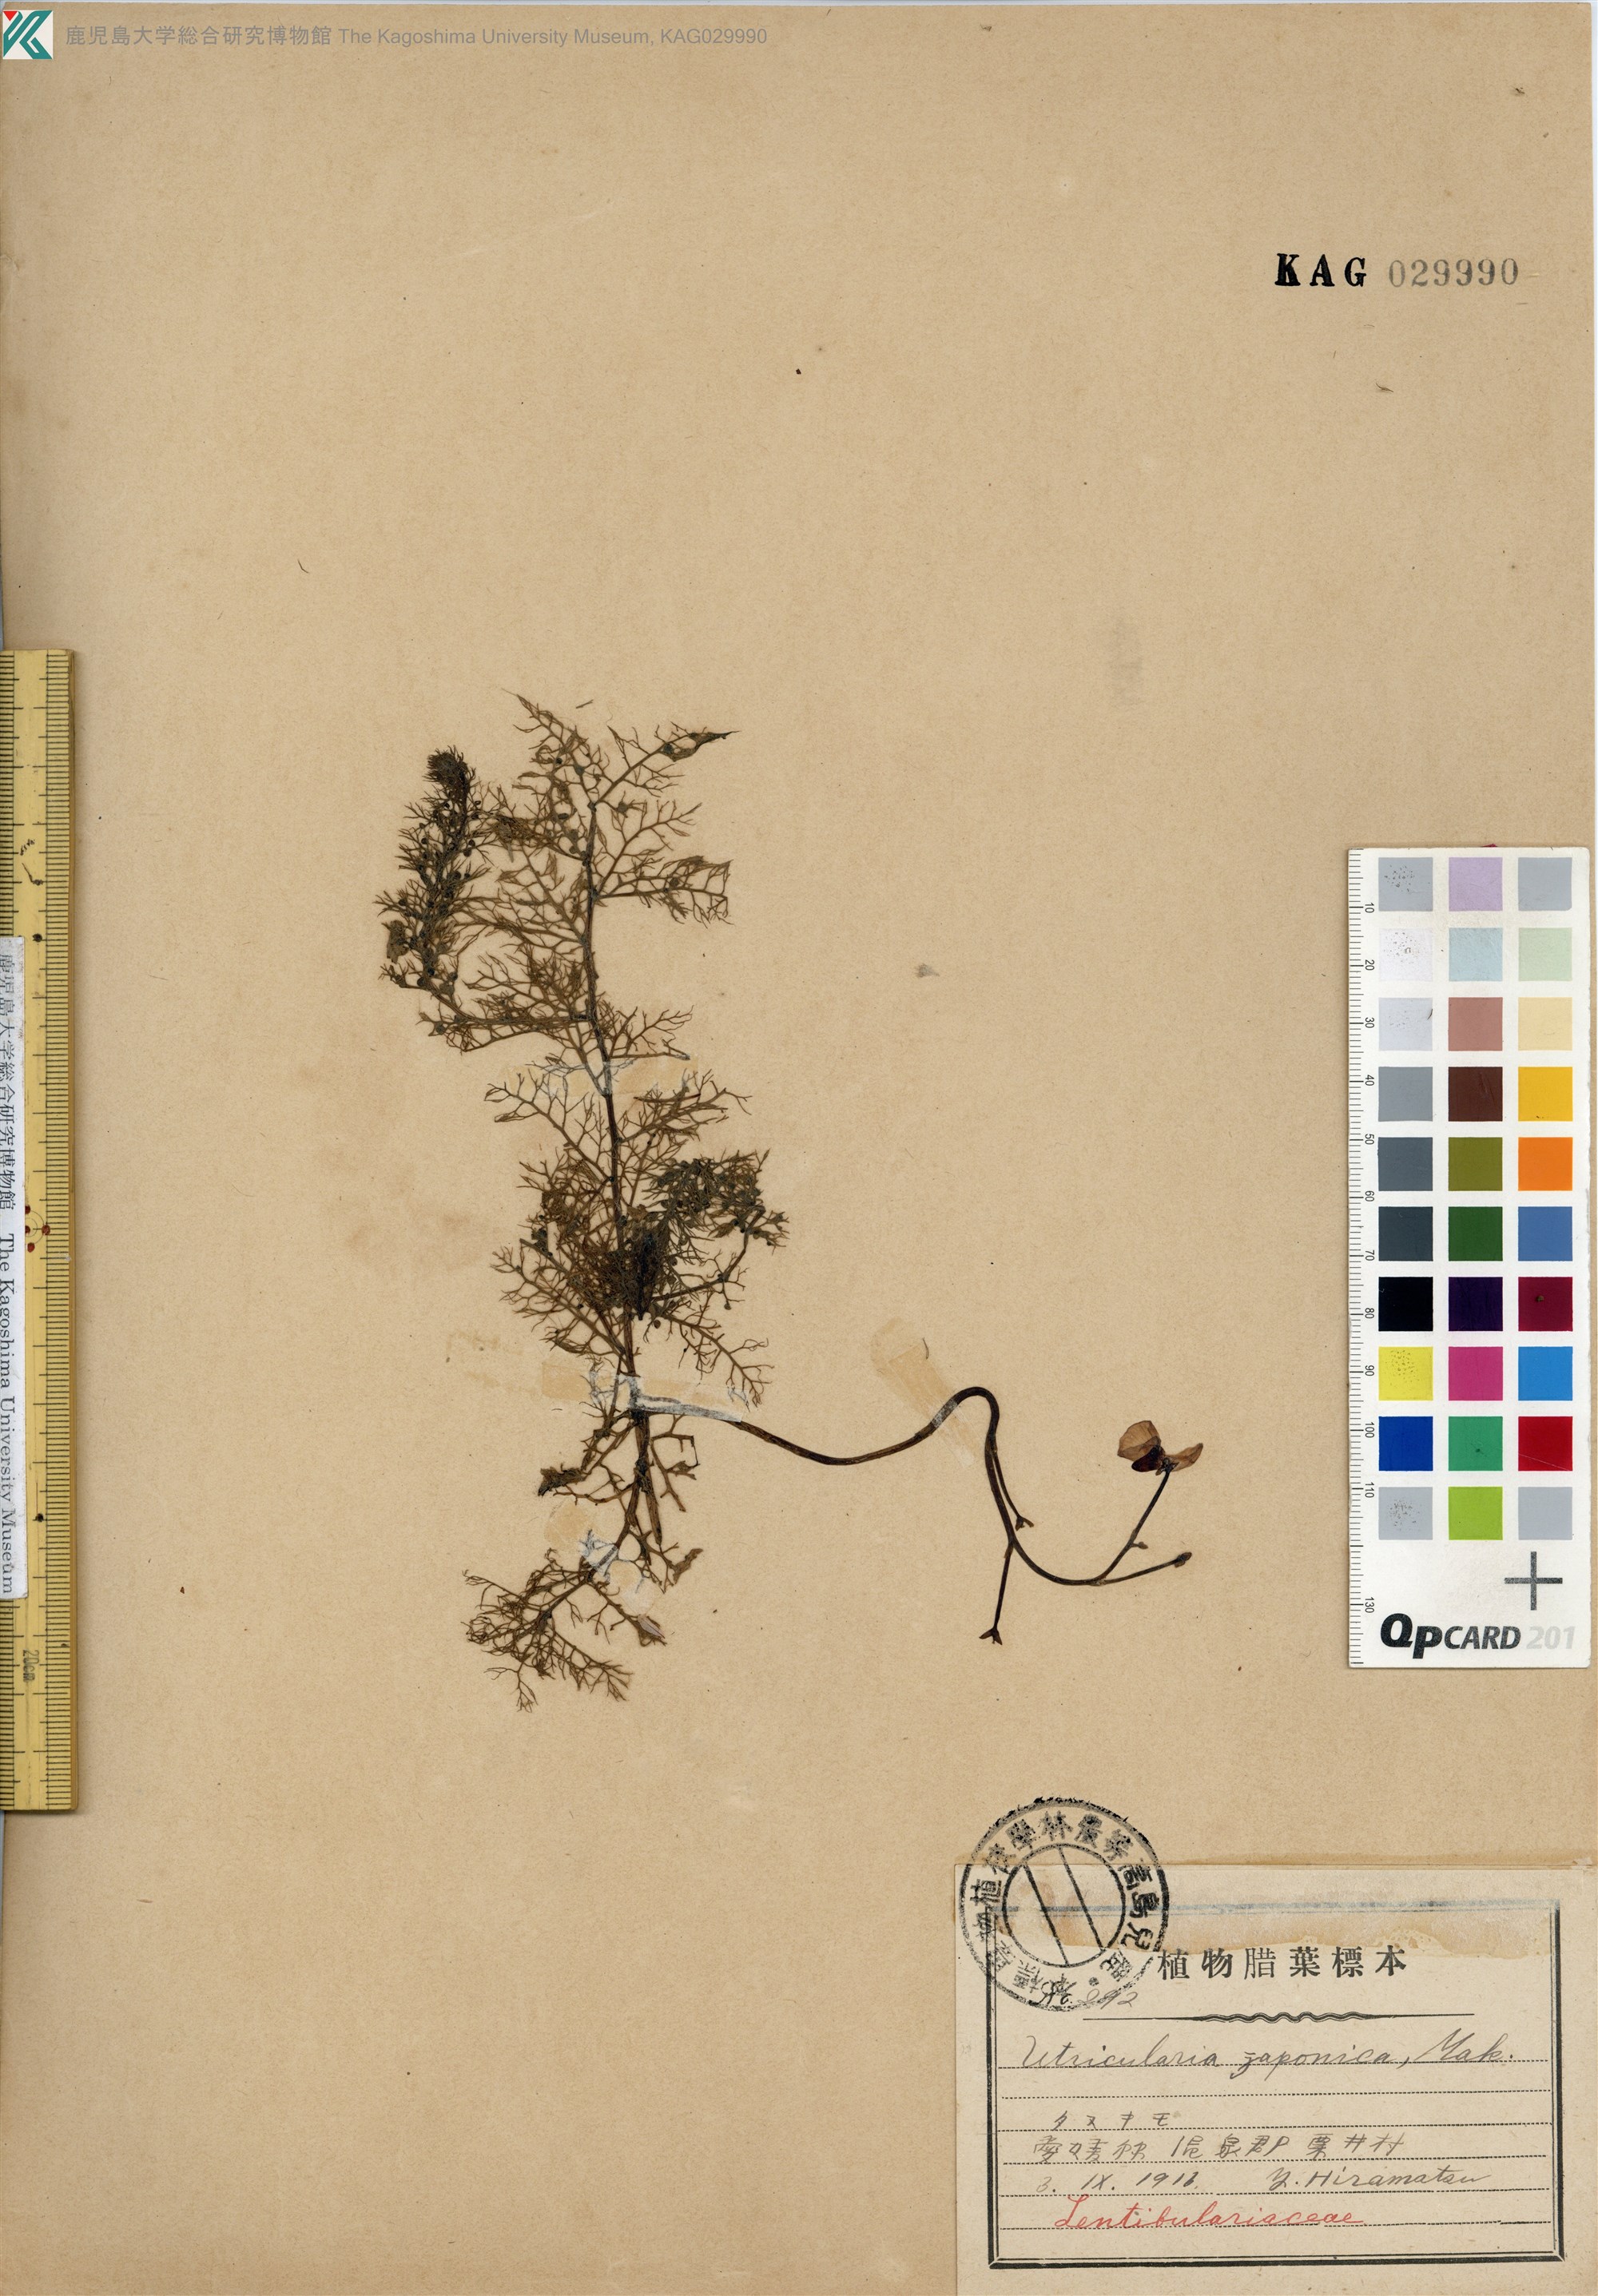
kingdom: Plantae
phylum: Tracheophyta
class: Magnoliopsida
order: Lamiales
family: Lentibulariaceae
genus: Utricularia
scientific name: Utricularia japonica
